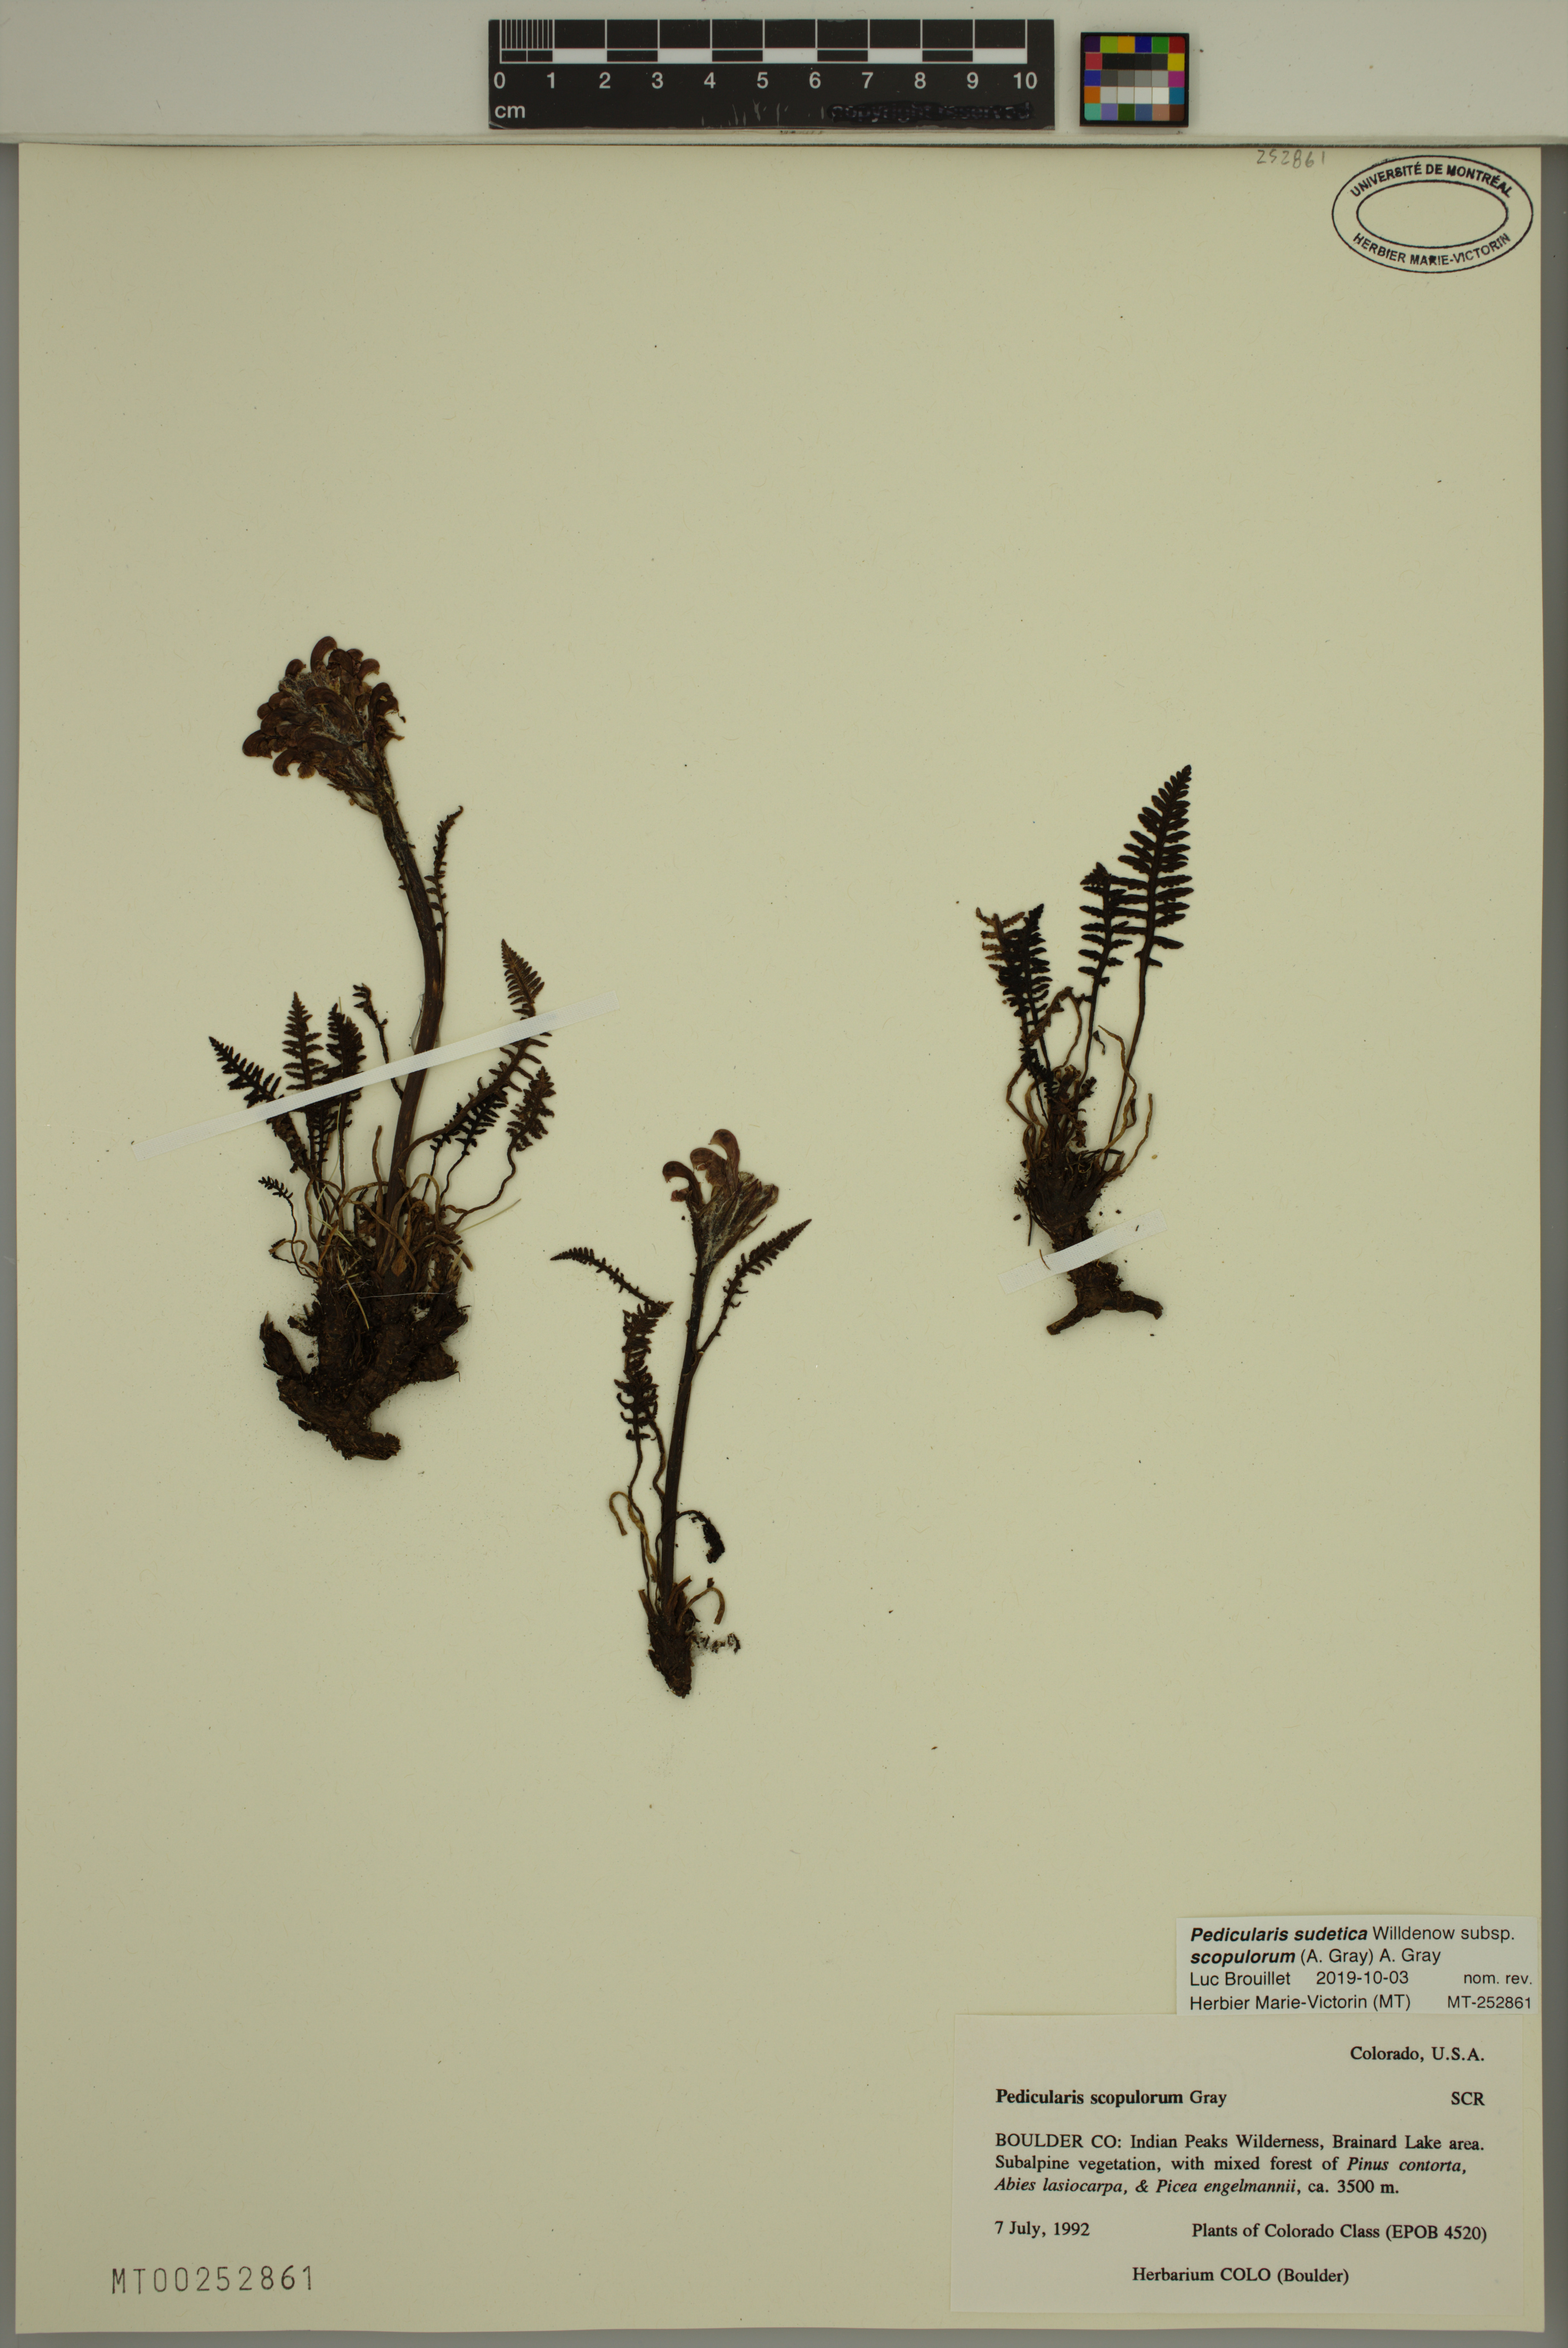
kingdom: Plantae
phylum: Tracheophyta
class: Magnoliopsida
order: Lamiales
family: Orobanchaceae
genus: Pedicularis
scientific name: Pedicularis sudetica
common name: Sudeten lousewort
